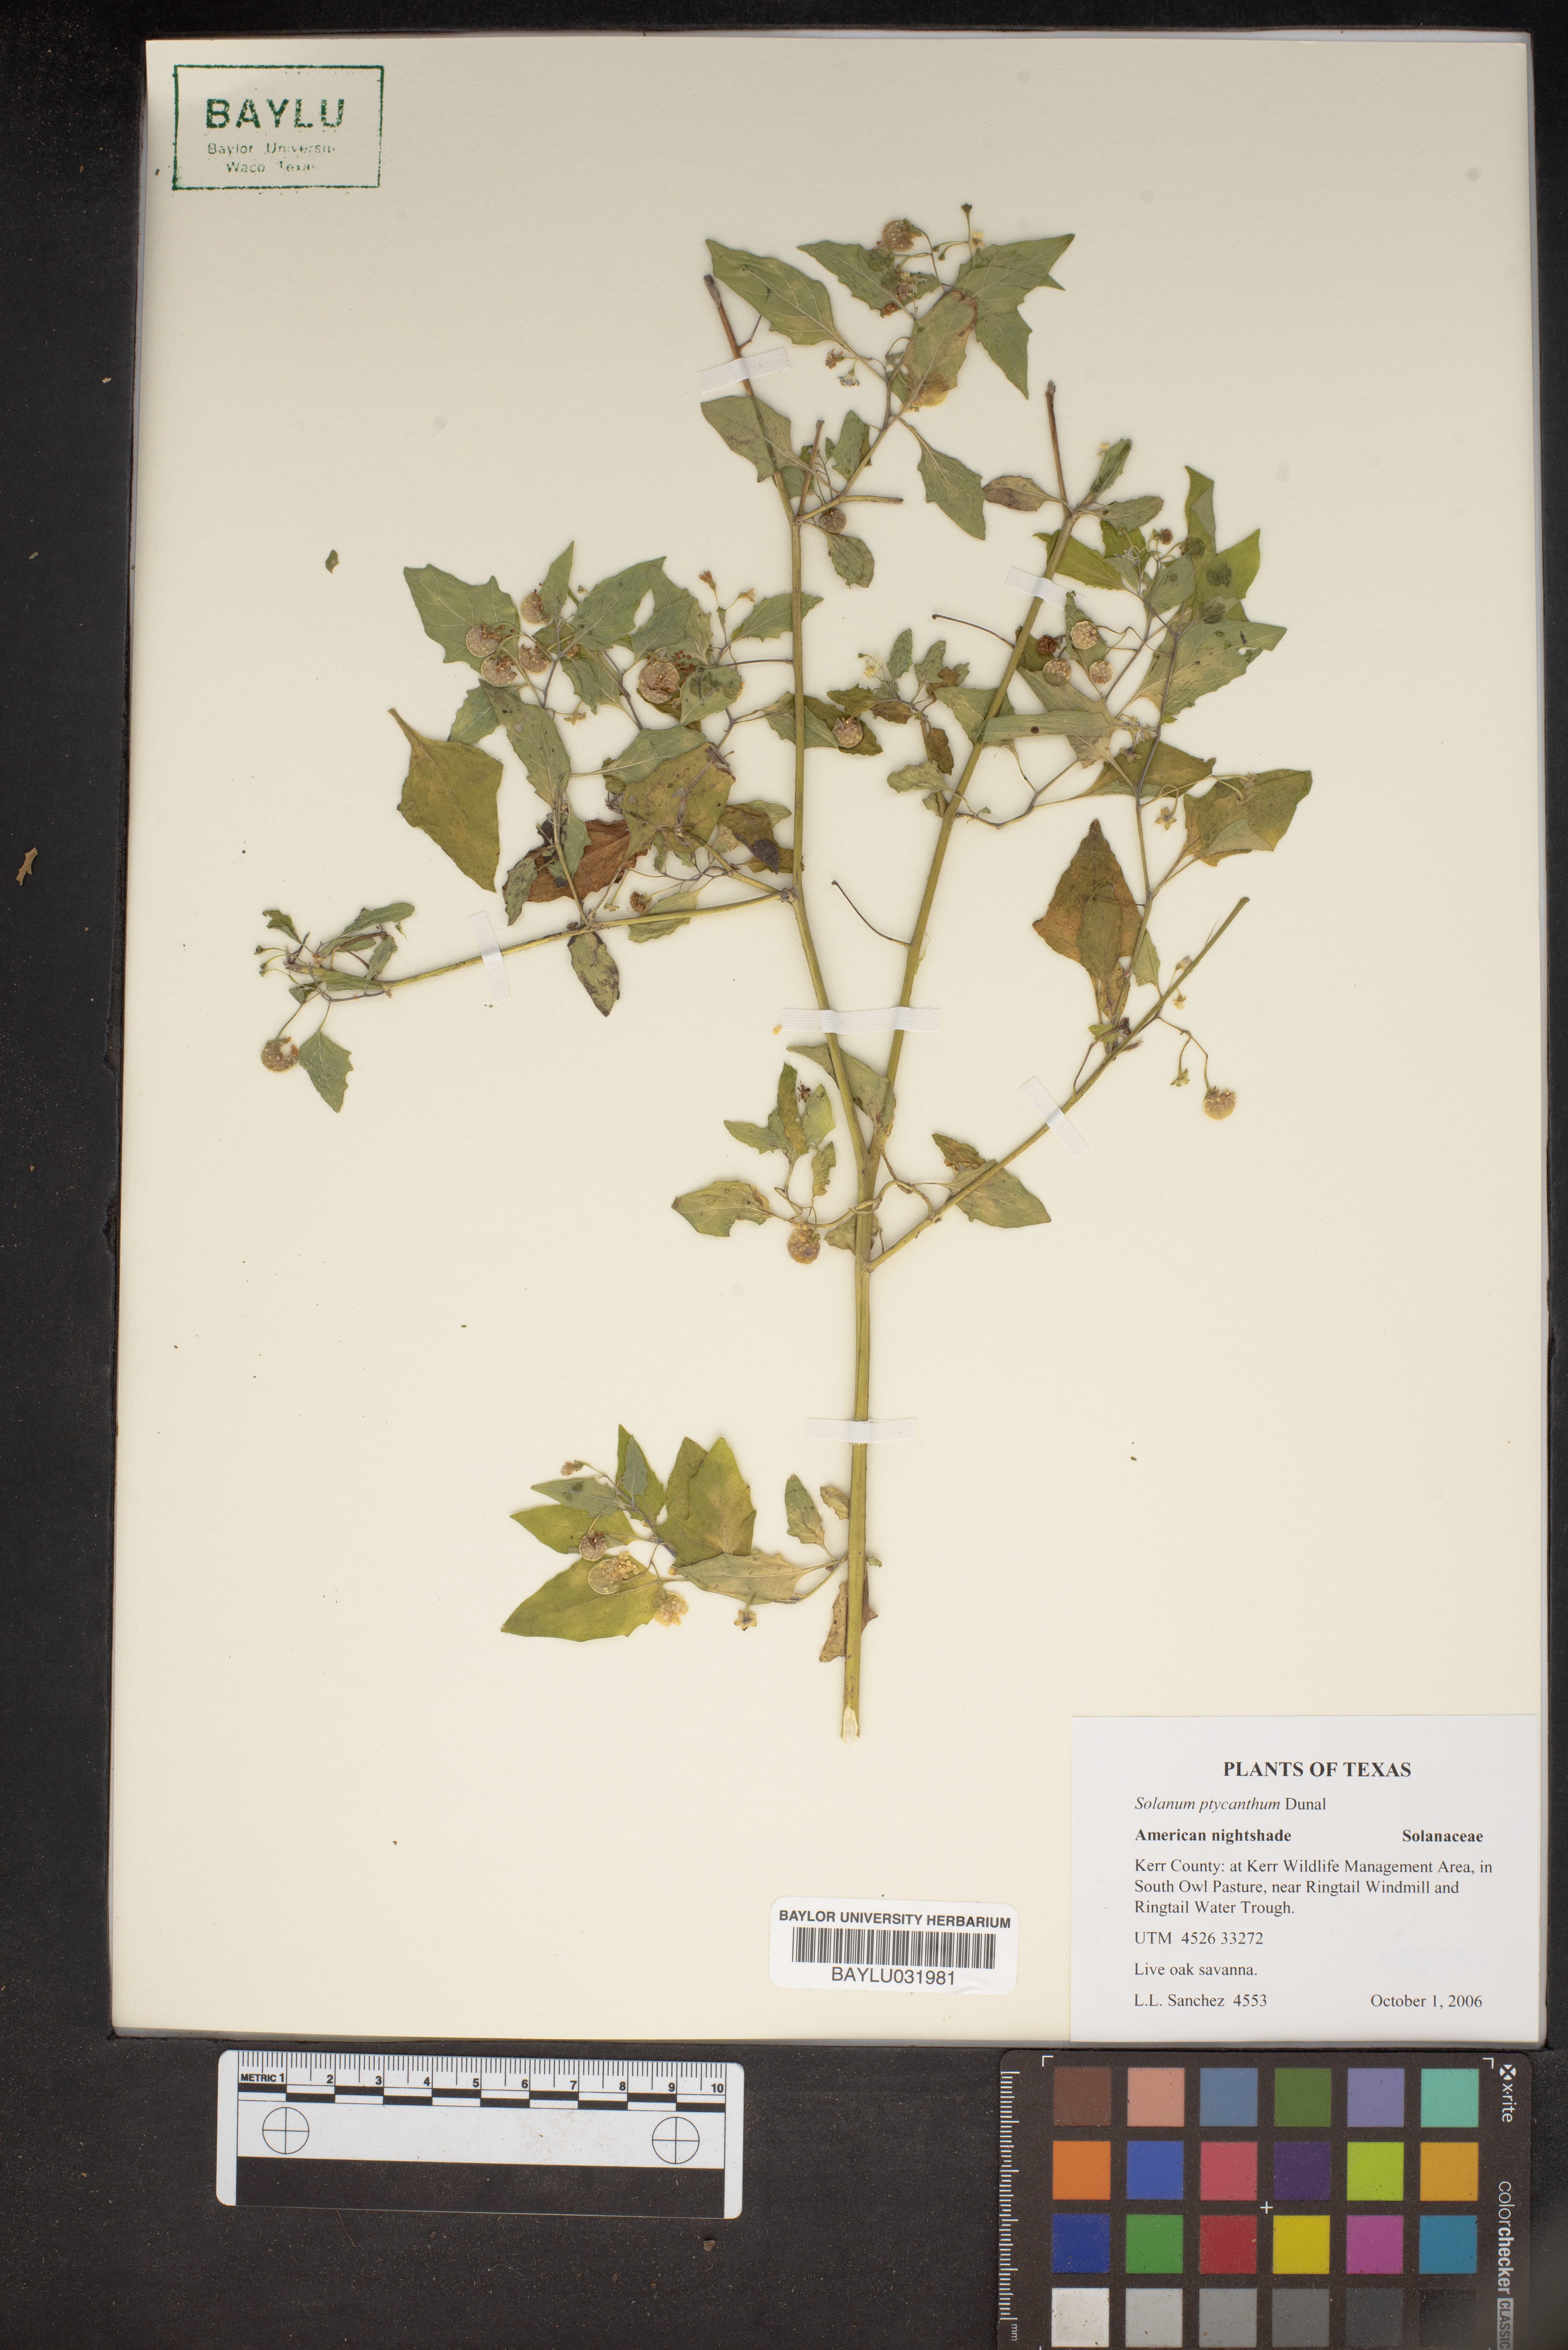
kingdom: Plantae
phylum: Tracheophyta
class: Magnoliopsida
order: Solanales
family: Solanaceae
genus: Solanum
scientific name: Solanum americanum
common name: American black nightshade
